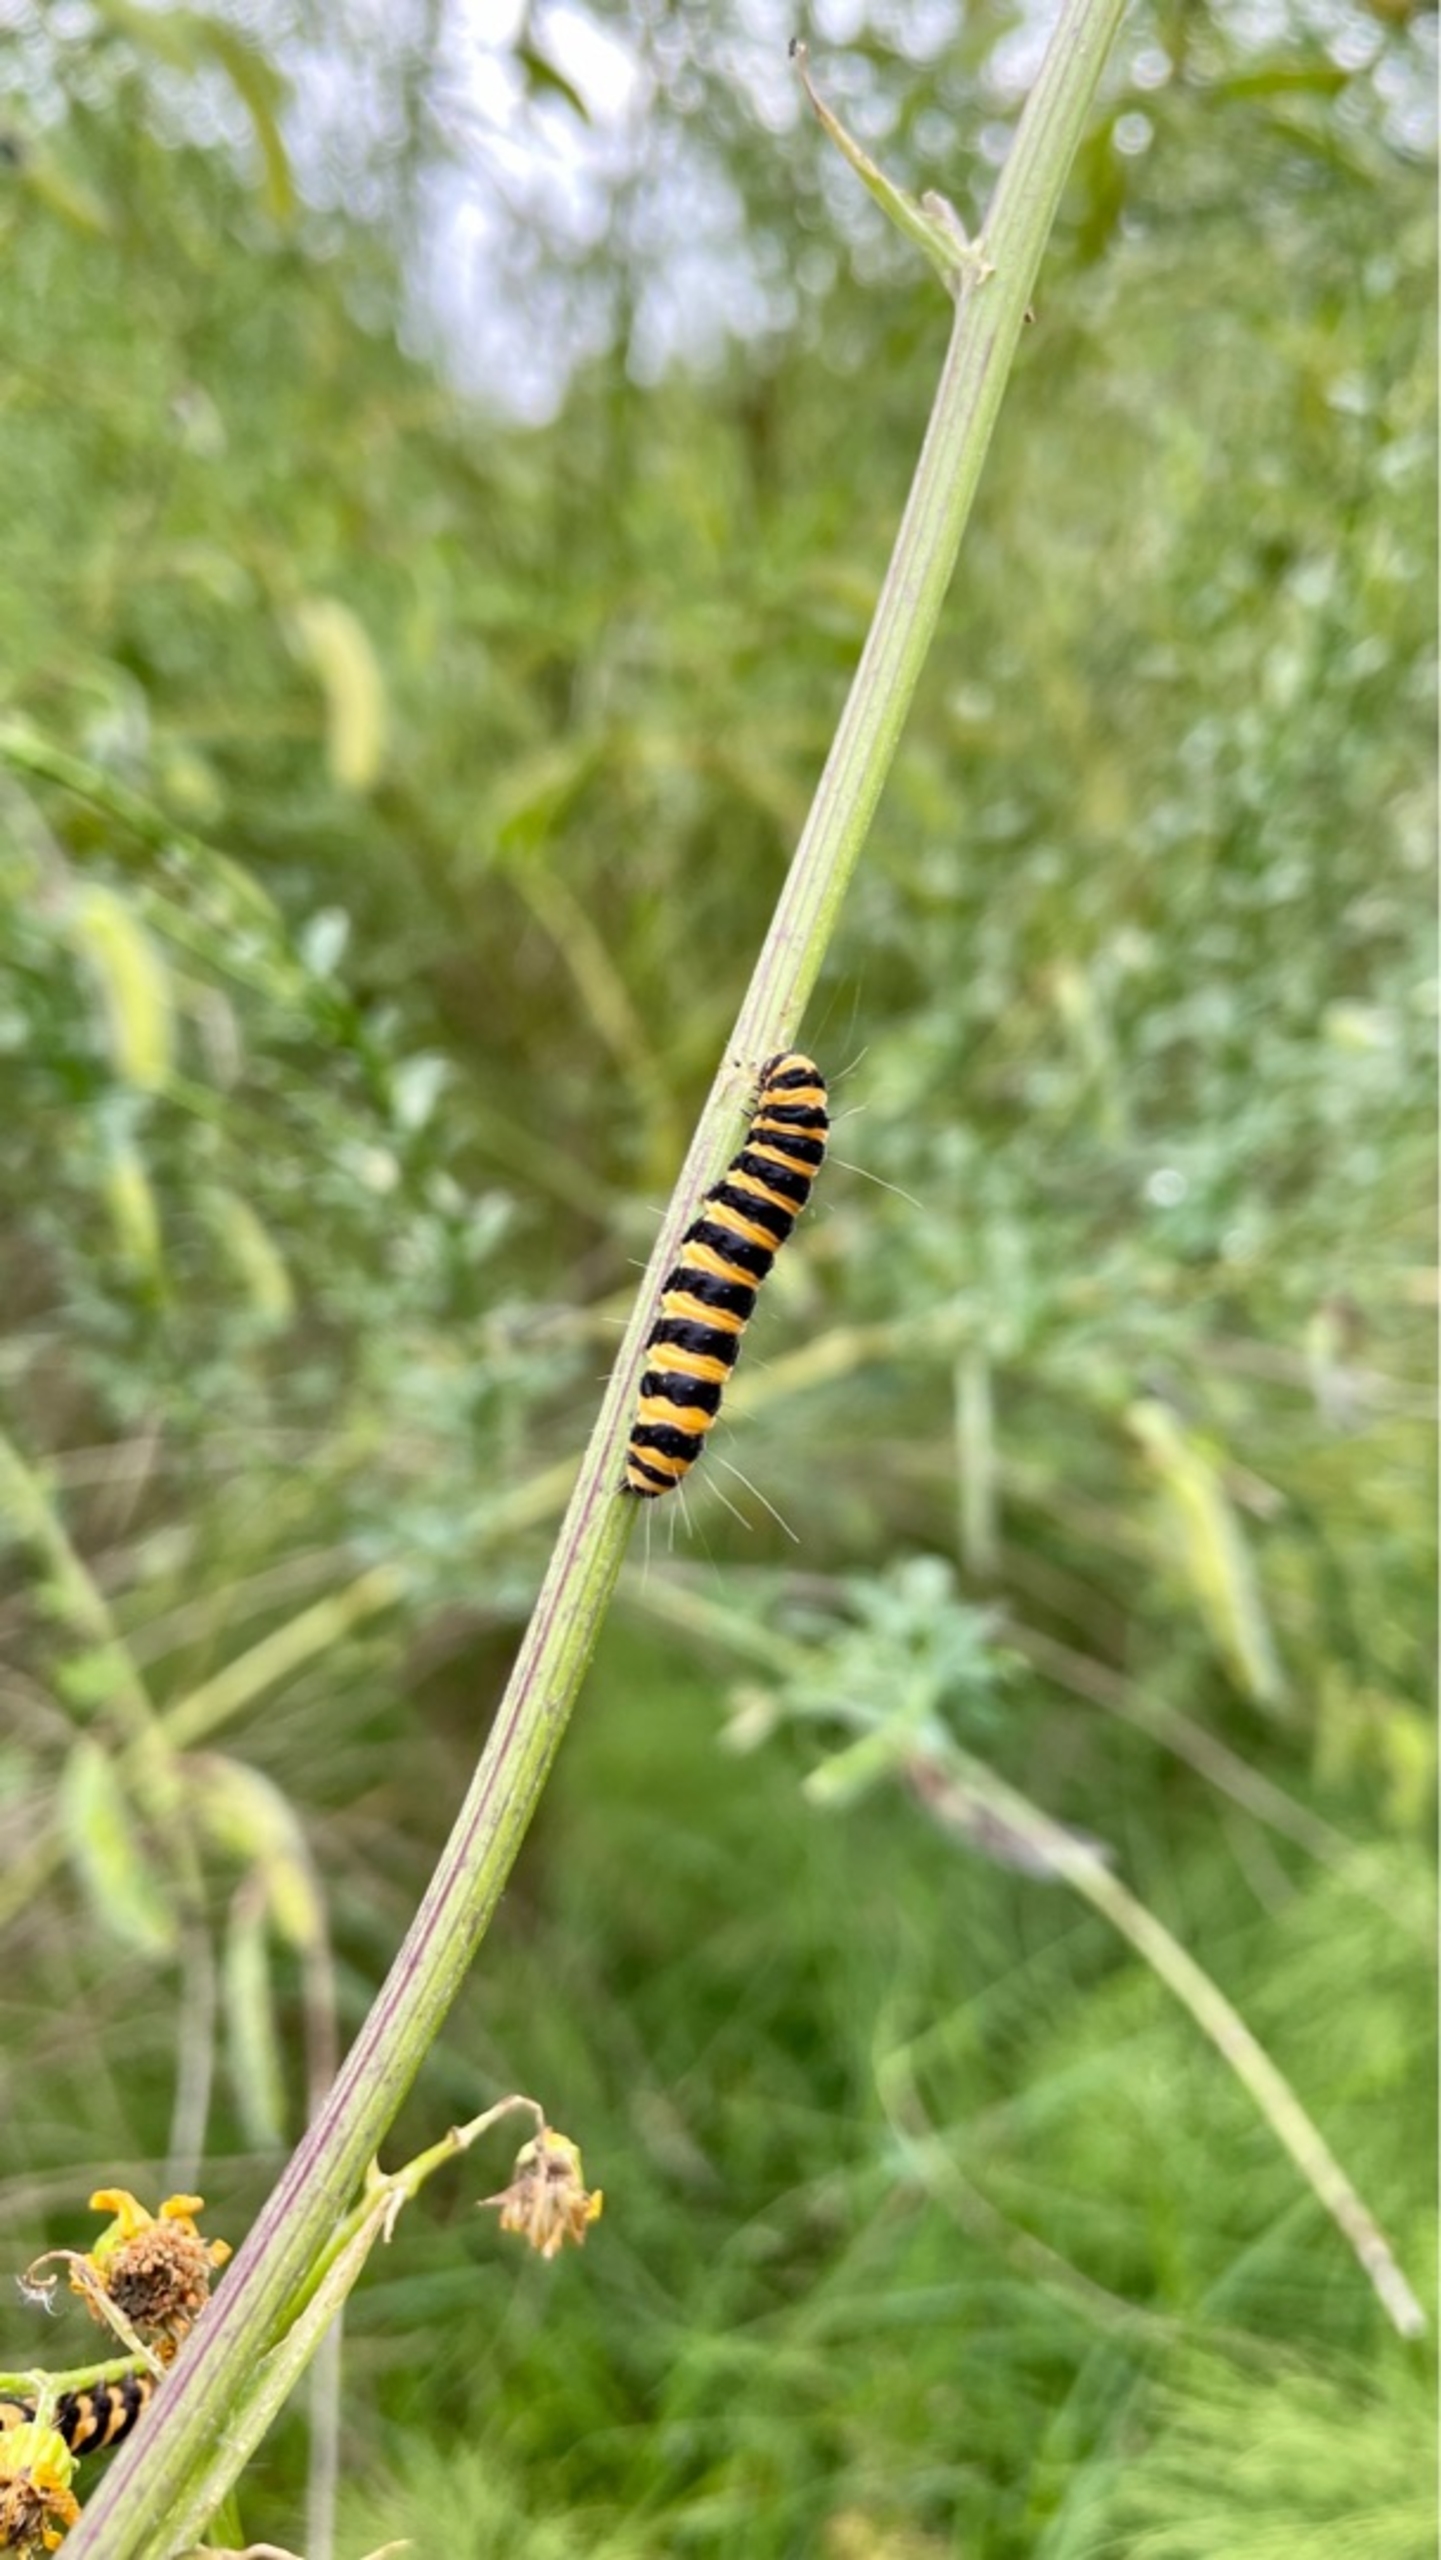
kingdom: Animalia
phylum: Arthropoda
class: Insecta
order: Lepidoptera
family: Erebidae
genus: Tyria
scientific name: Tyria jacobaeae
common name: Blodplet
